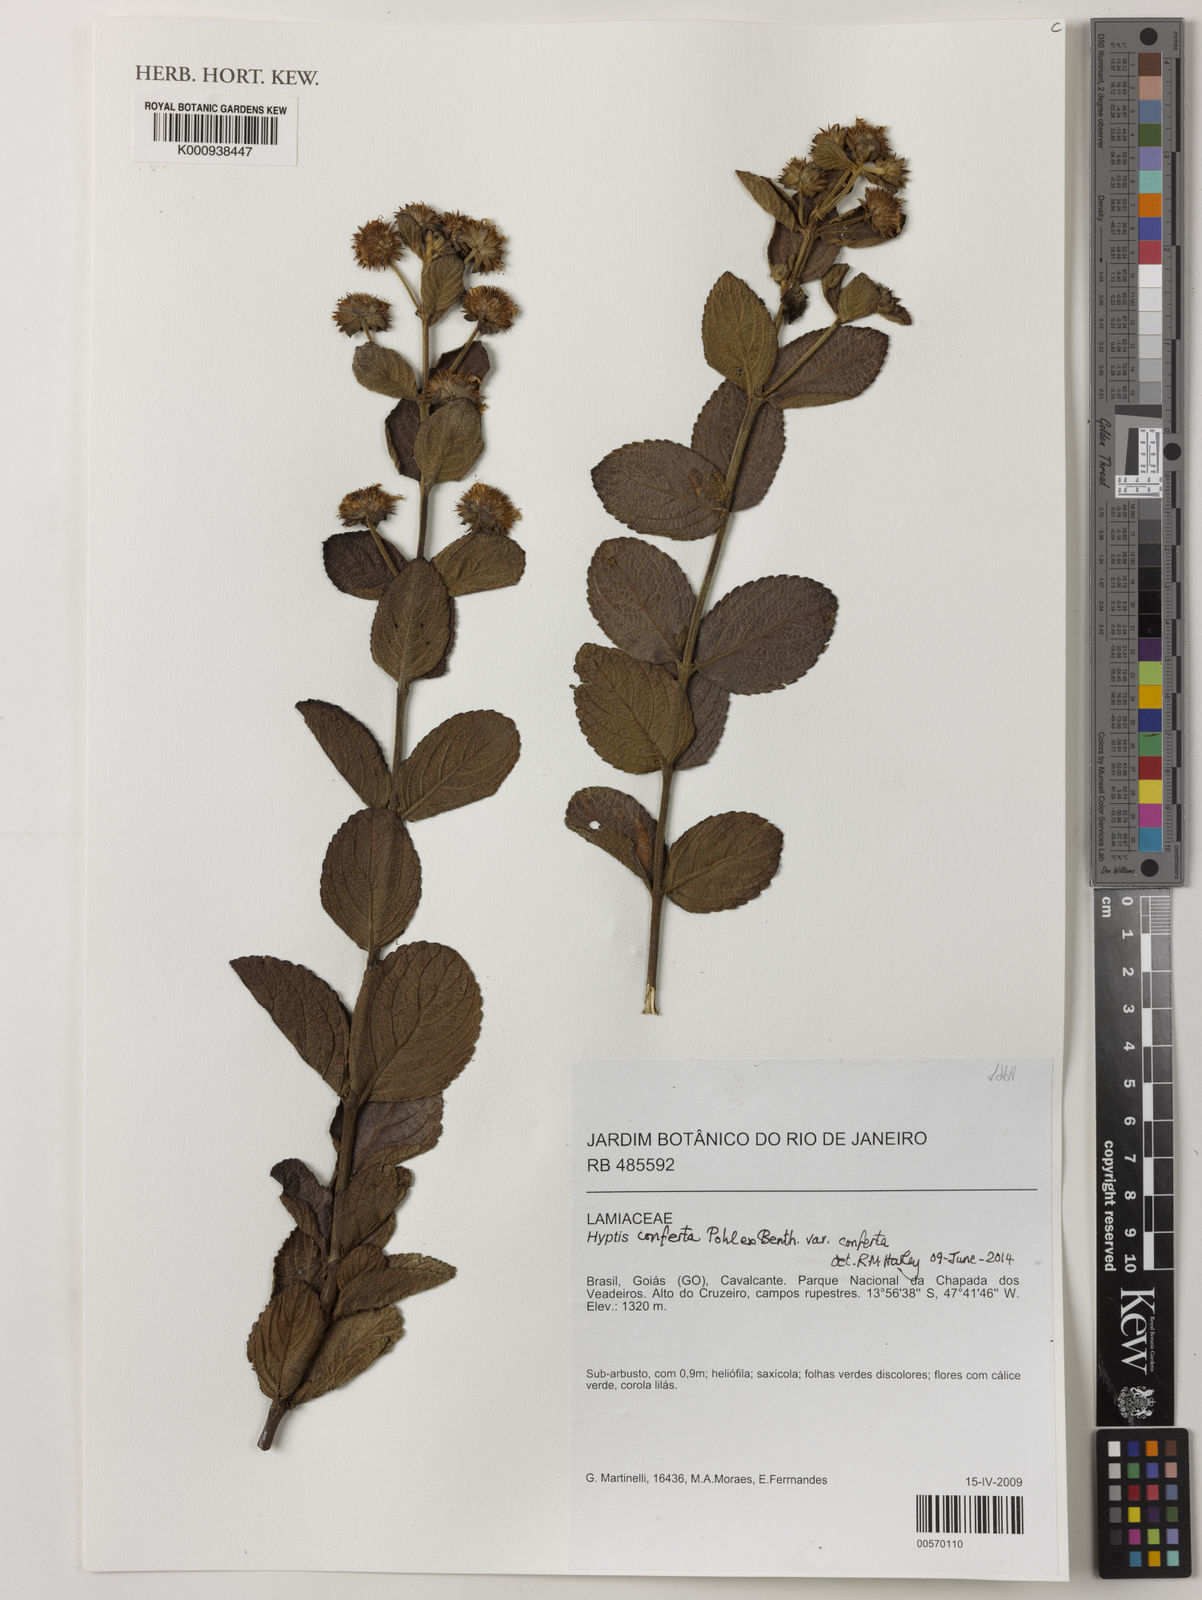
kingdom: Plantae
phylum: Tracheophyta
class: Magnoliopsida
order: Lamiales
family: Lamiaceae
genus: Hyptis
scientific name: Hyptis conferta
